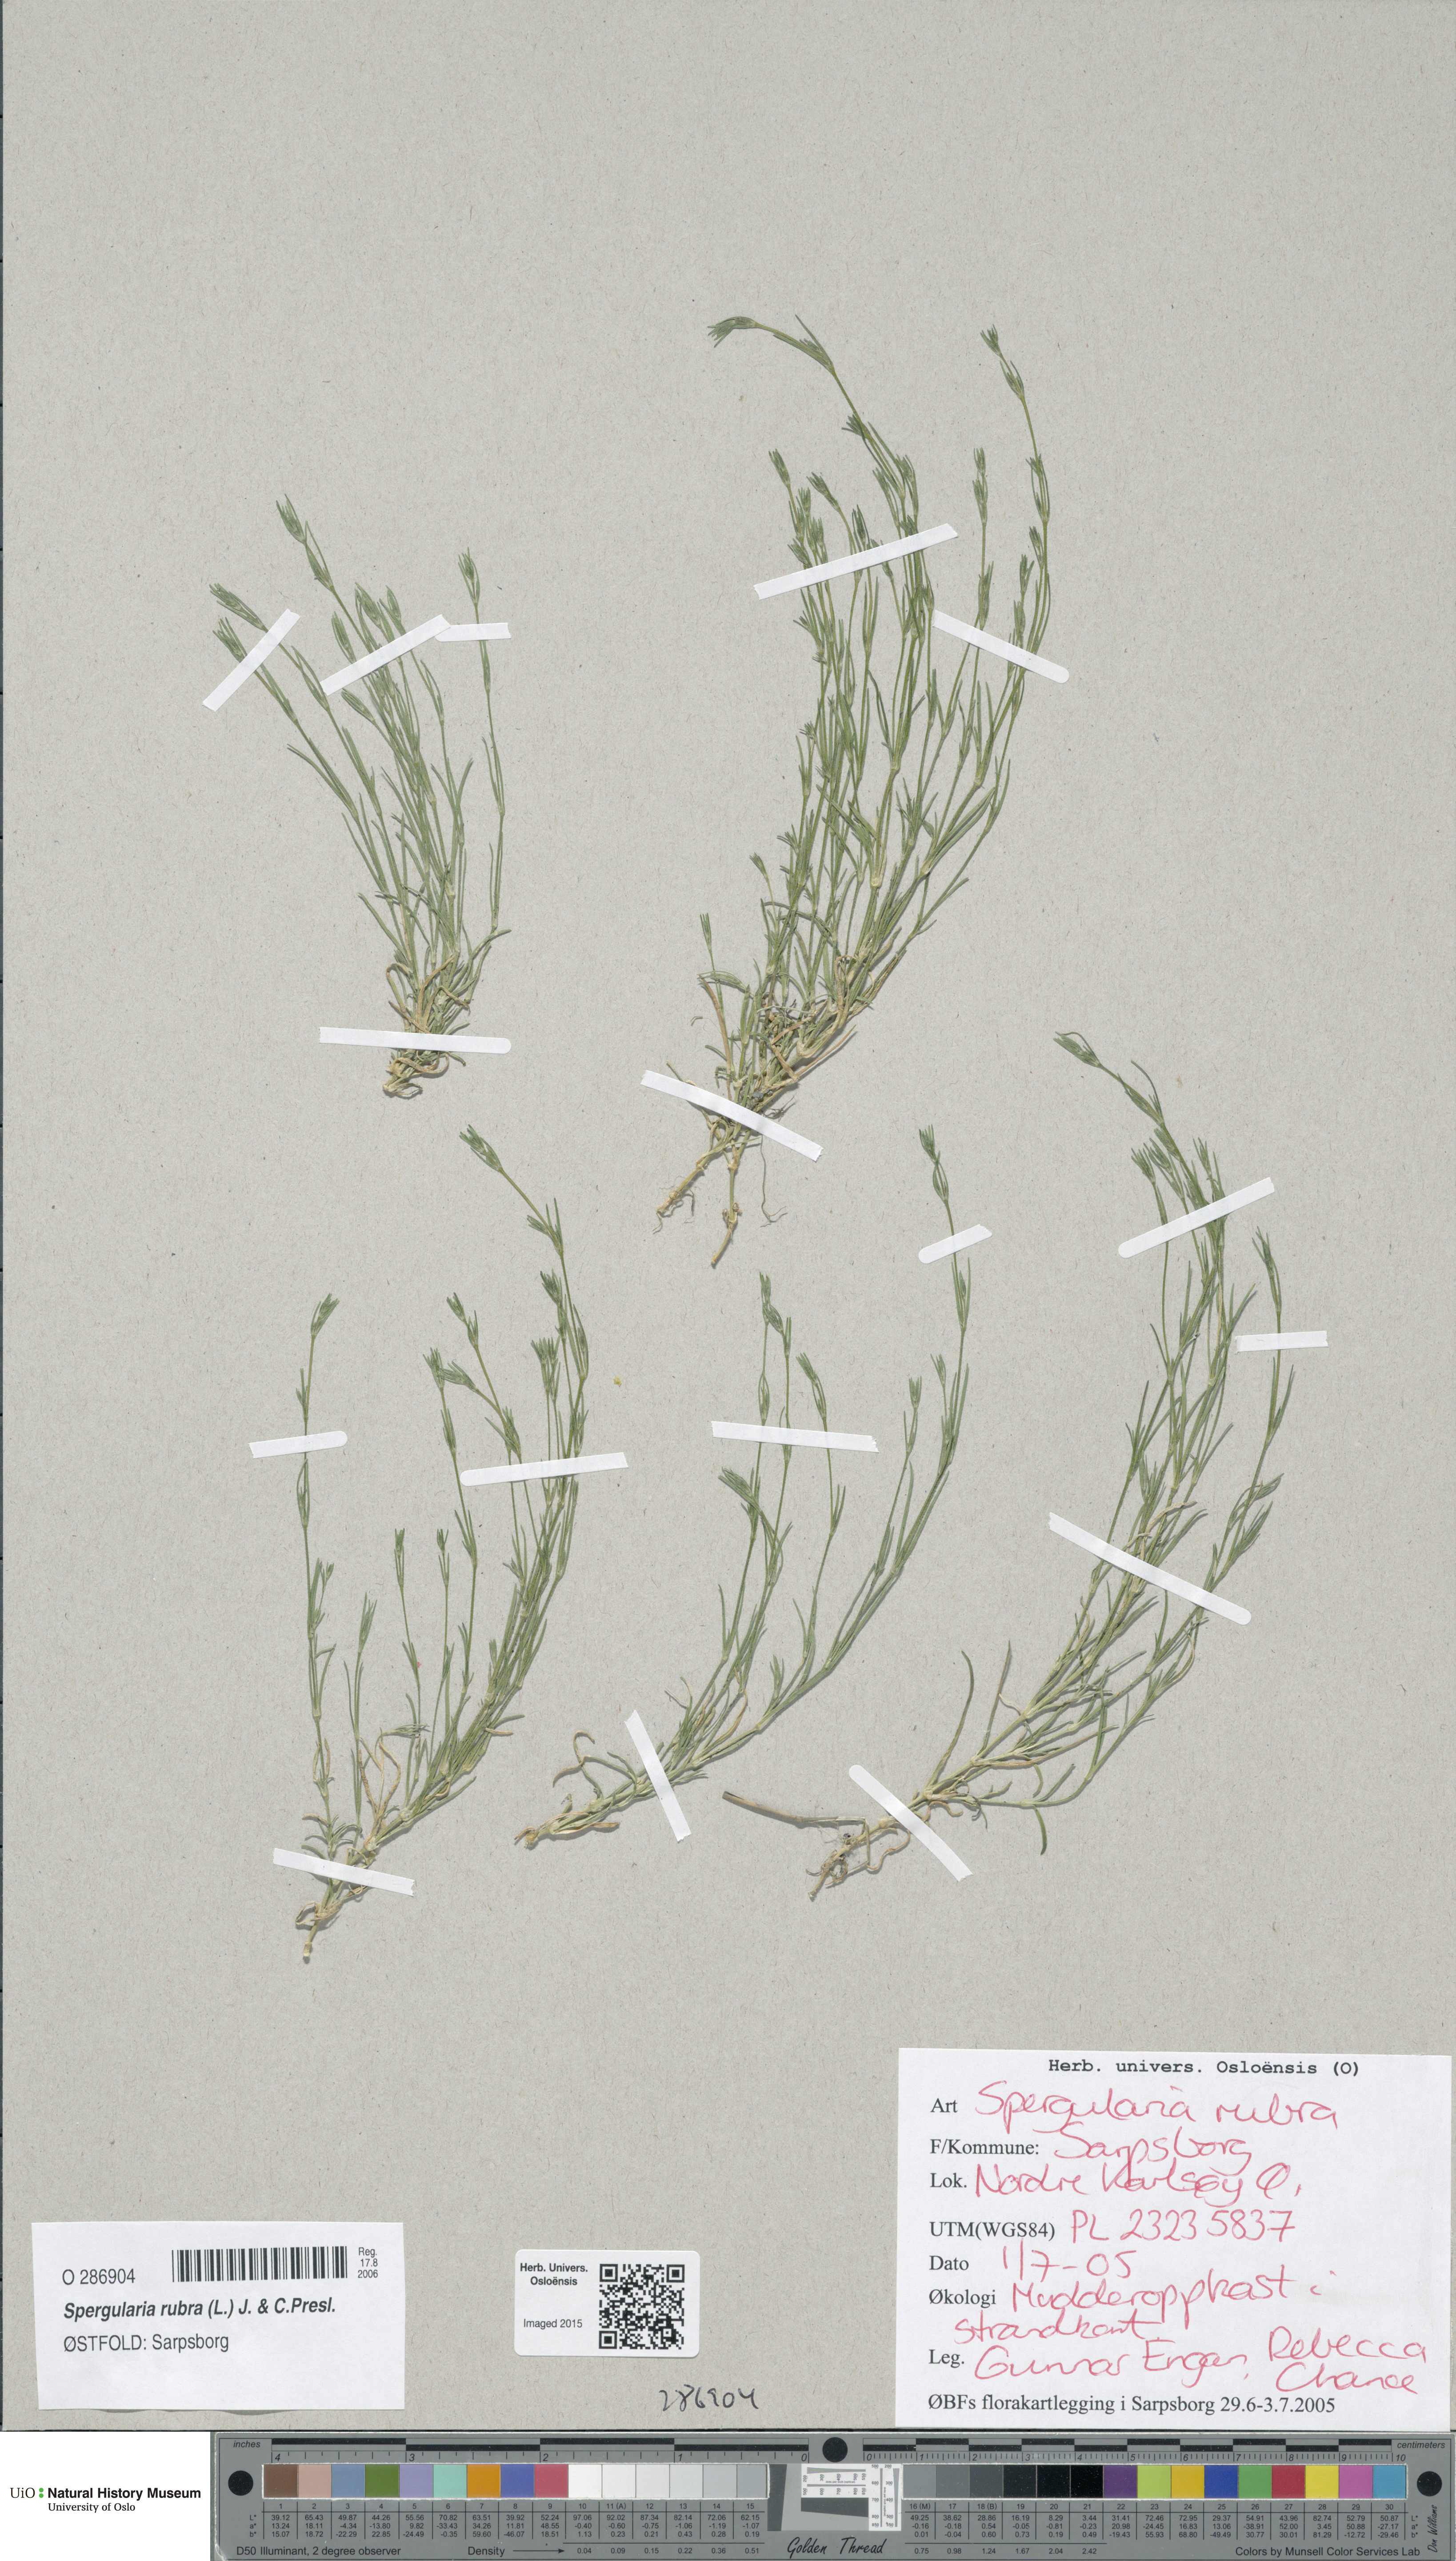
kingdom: Plantae
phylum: Tracheophyta
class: Magnoliopsida
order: Caryophyllales
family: Caryophyllaceae
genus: Spergularia
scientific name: Spergularia rubra
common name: Red sand-spurrey
